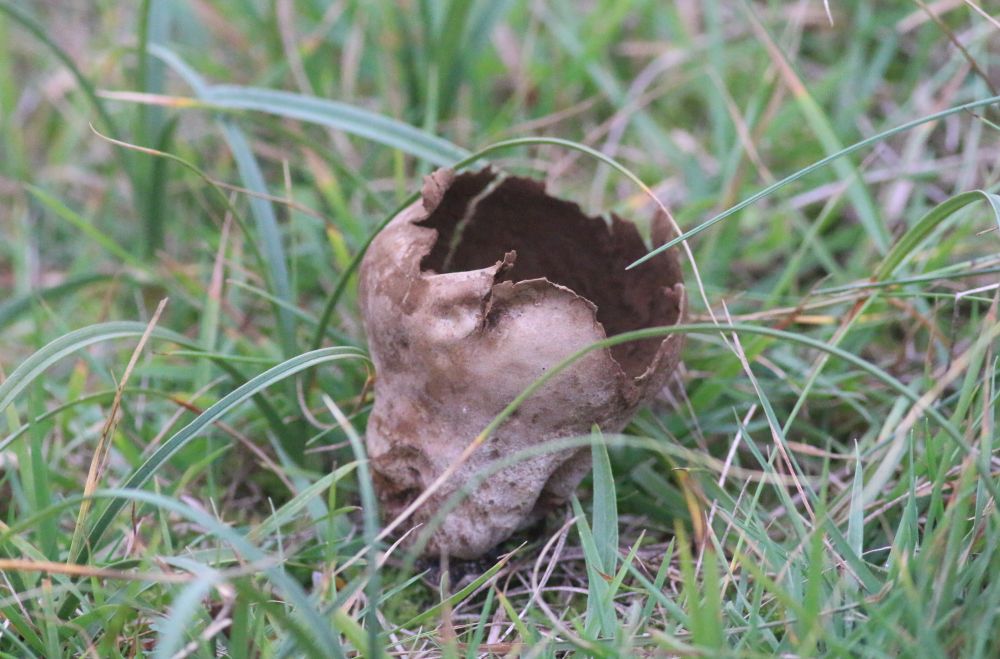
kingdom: Fungi
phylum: Basidiomycota
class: Agaricomycetes
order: Agaricales
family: Lycoperdaceae
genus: Bovistella
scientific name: Bovistella utriformis
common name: skællet støvbold
